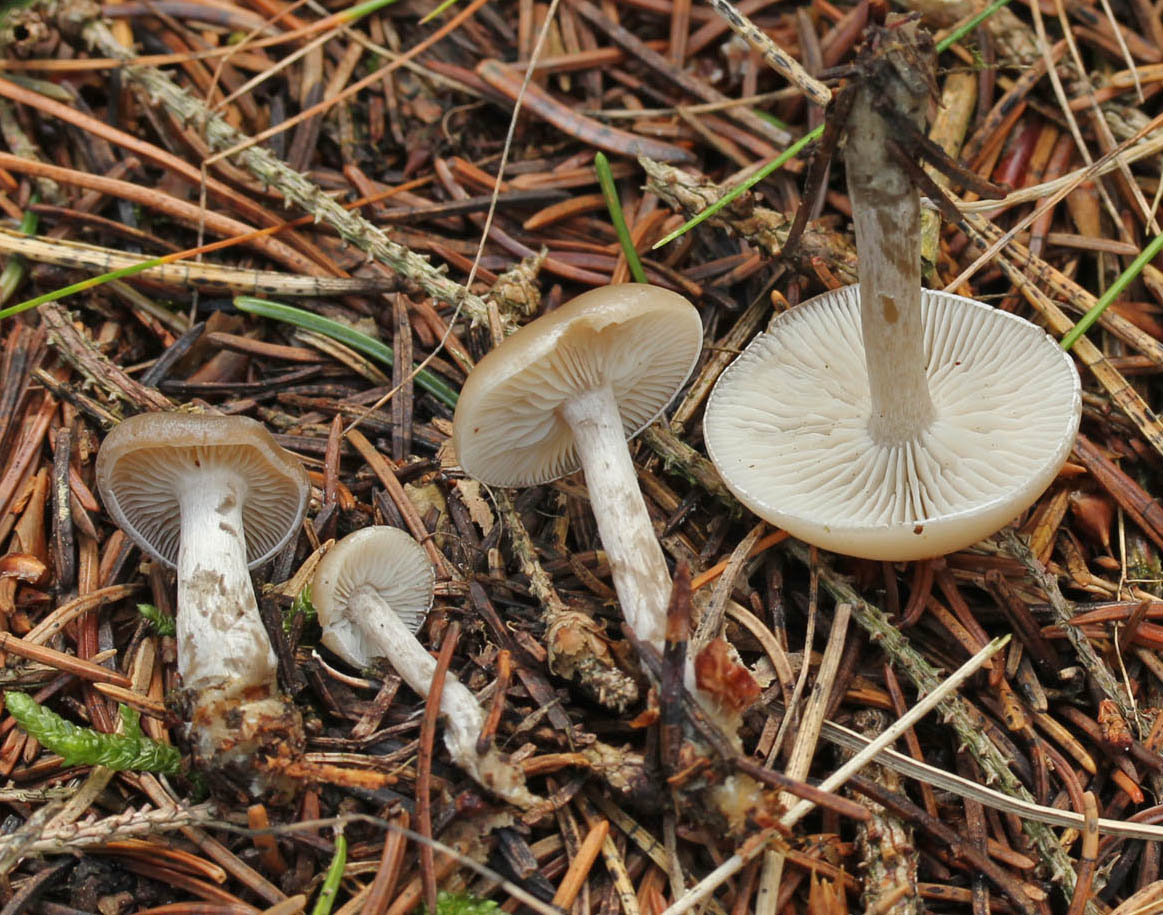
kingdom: Fungi
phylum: Basidiomycota
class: Agaricomycetes
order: Agaricales
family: Tricholomataceae
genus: Clitocybe
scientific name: Clitocybe metachroa
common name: grå tragthat
